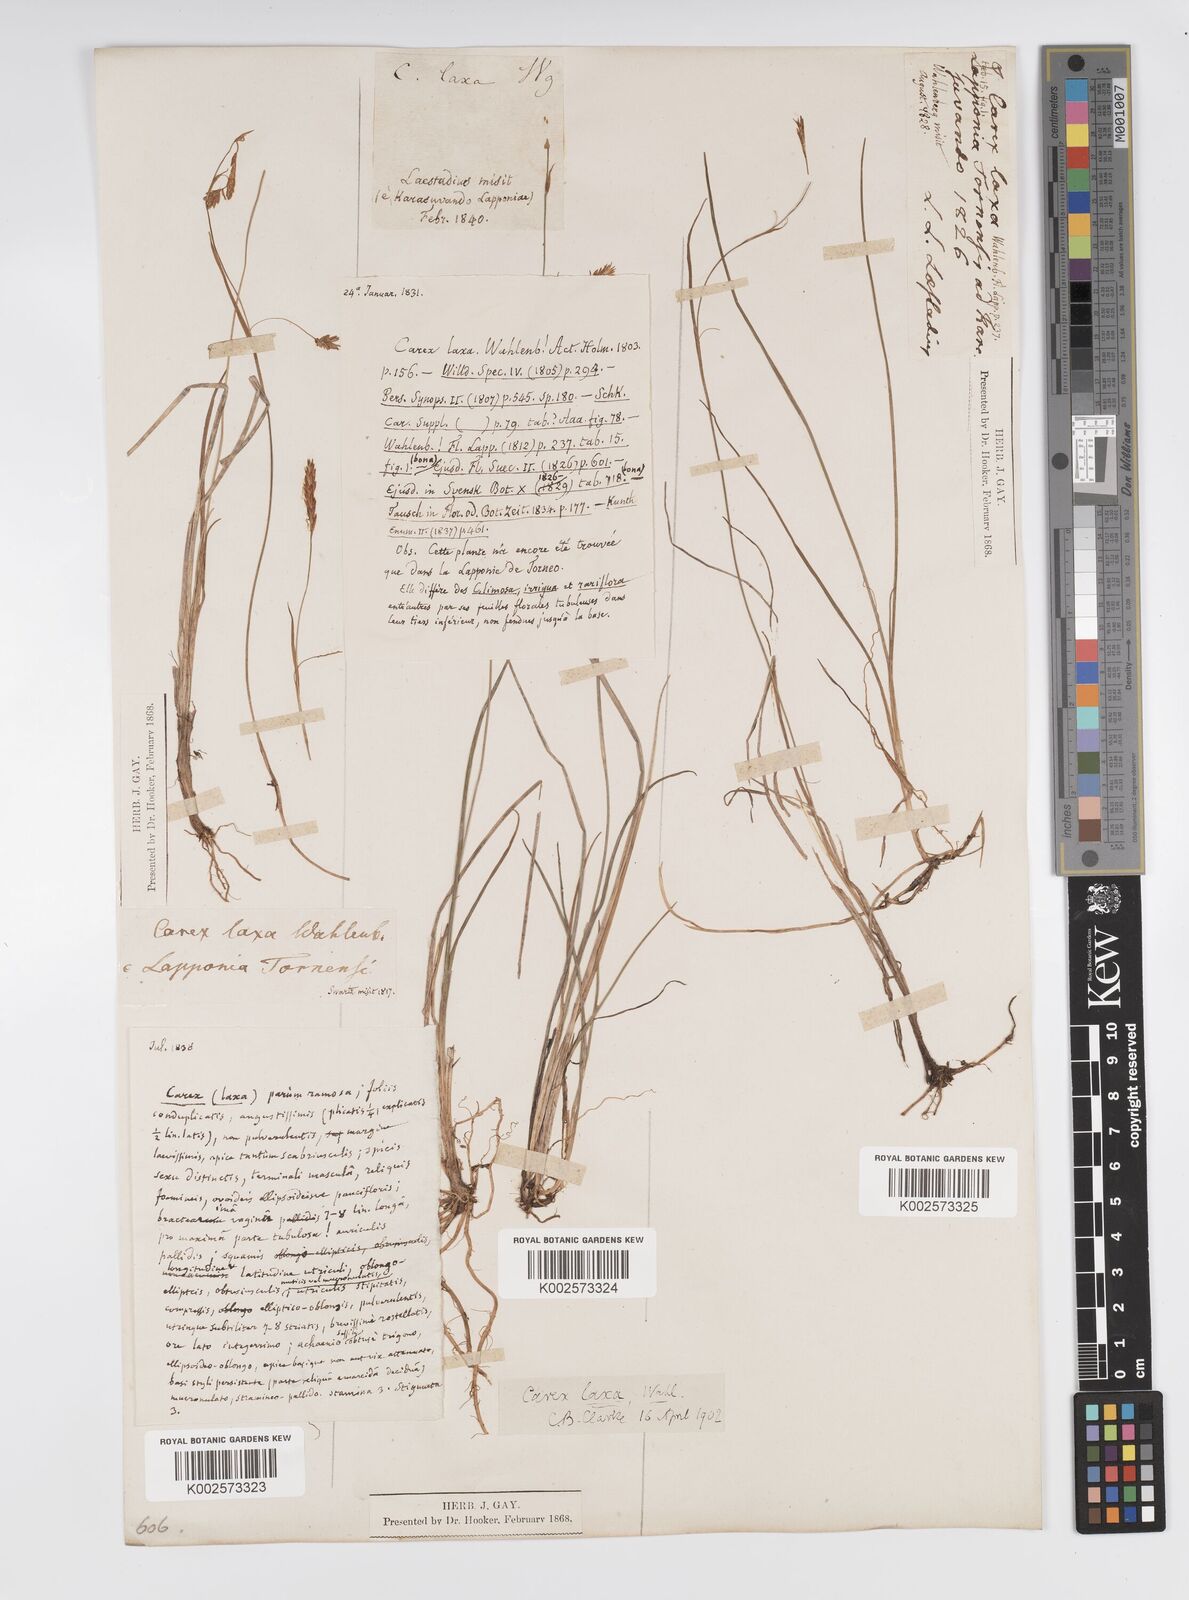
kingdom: Plantae
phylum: Tracheophyta
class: Liliopsida
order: Poales
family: Cyperaceae
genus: Carex
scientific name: Carex laxa
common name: Weak sedge
